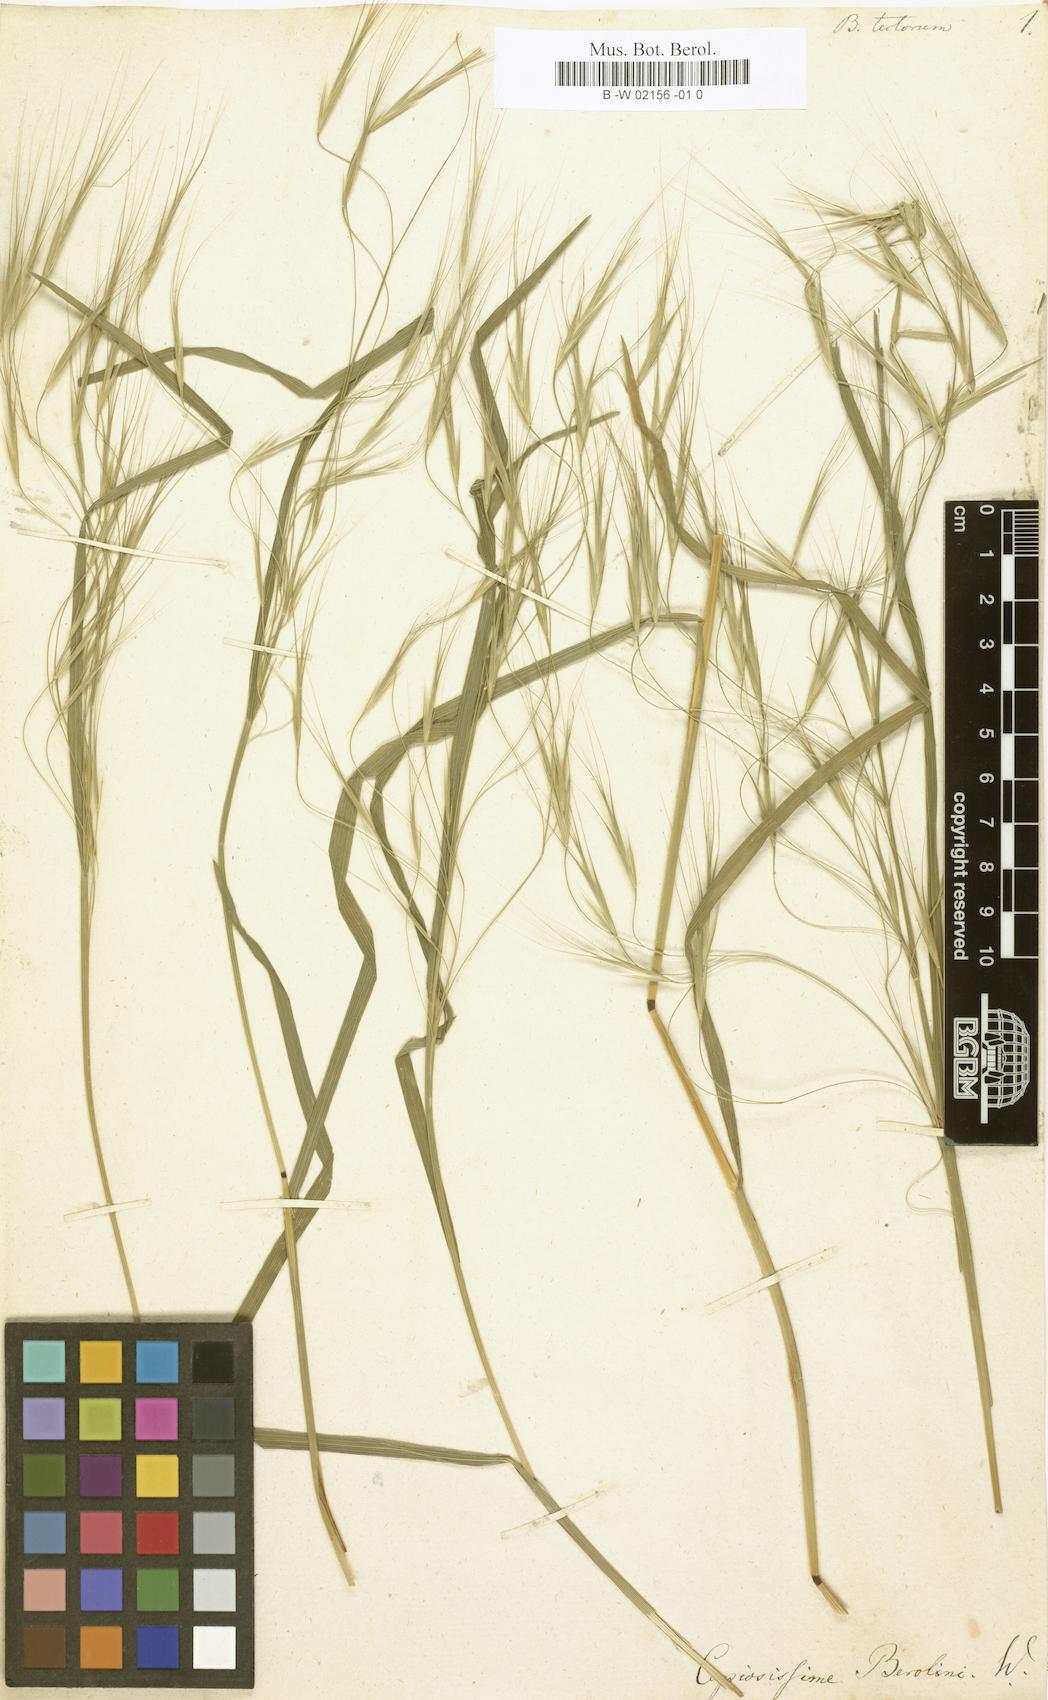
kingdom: Plantae
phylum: Tracheophyta
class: Liliopsida
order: Poales
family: Poaceae
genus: Bromus
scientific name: Bromus tectorum
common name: Cheatgrass
